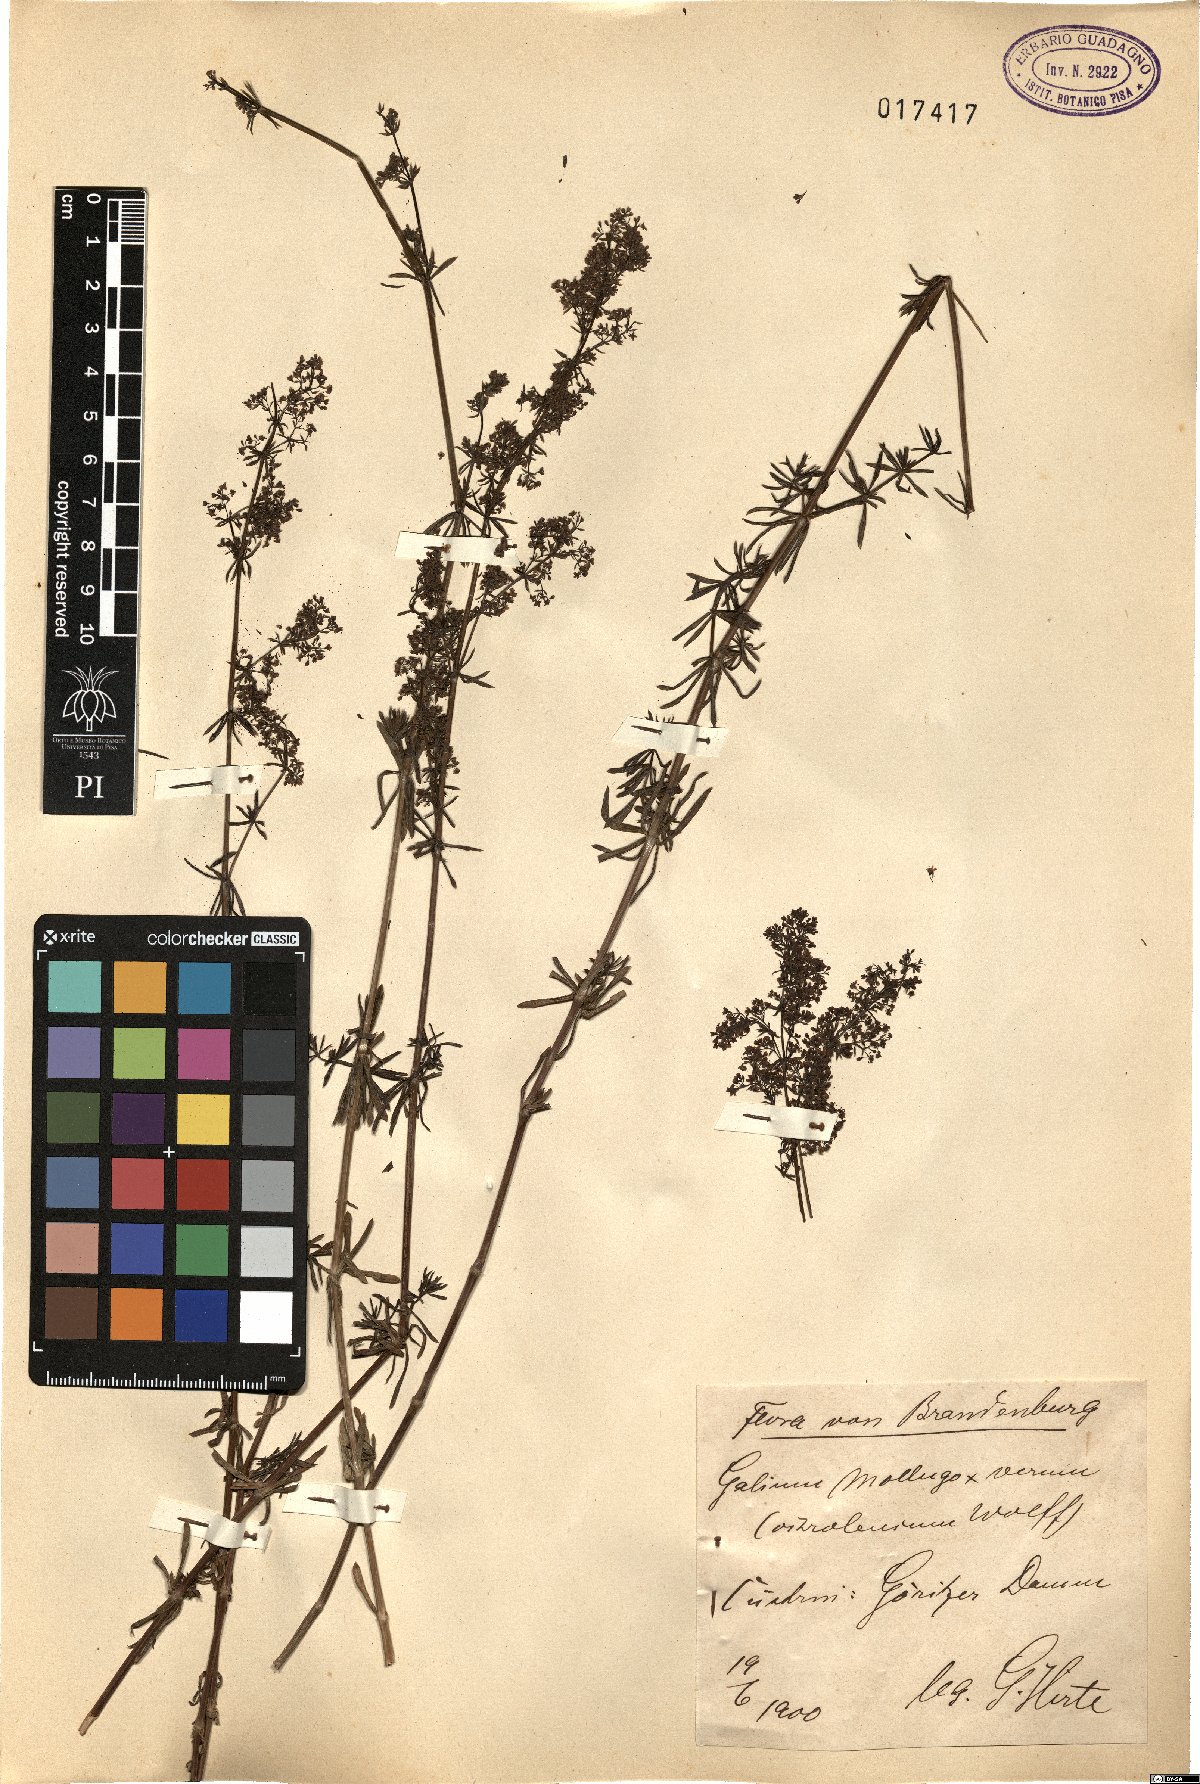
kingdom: Plantae
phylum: Tracheophyta
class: Magnoliopsida
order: Gentianales
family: Rubiaceae
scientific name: Rubiaceae
